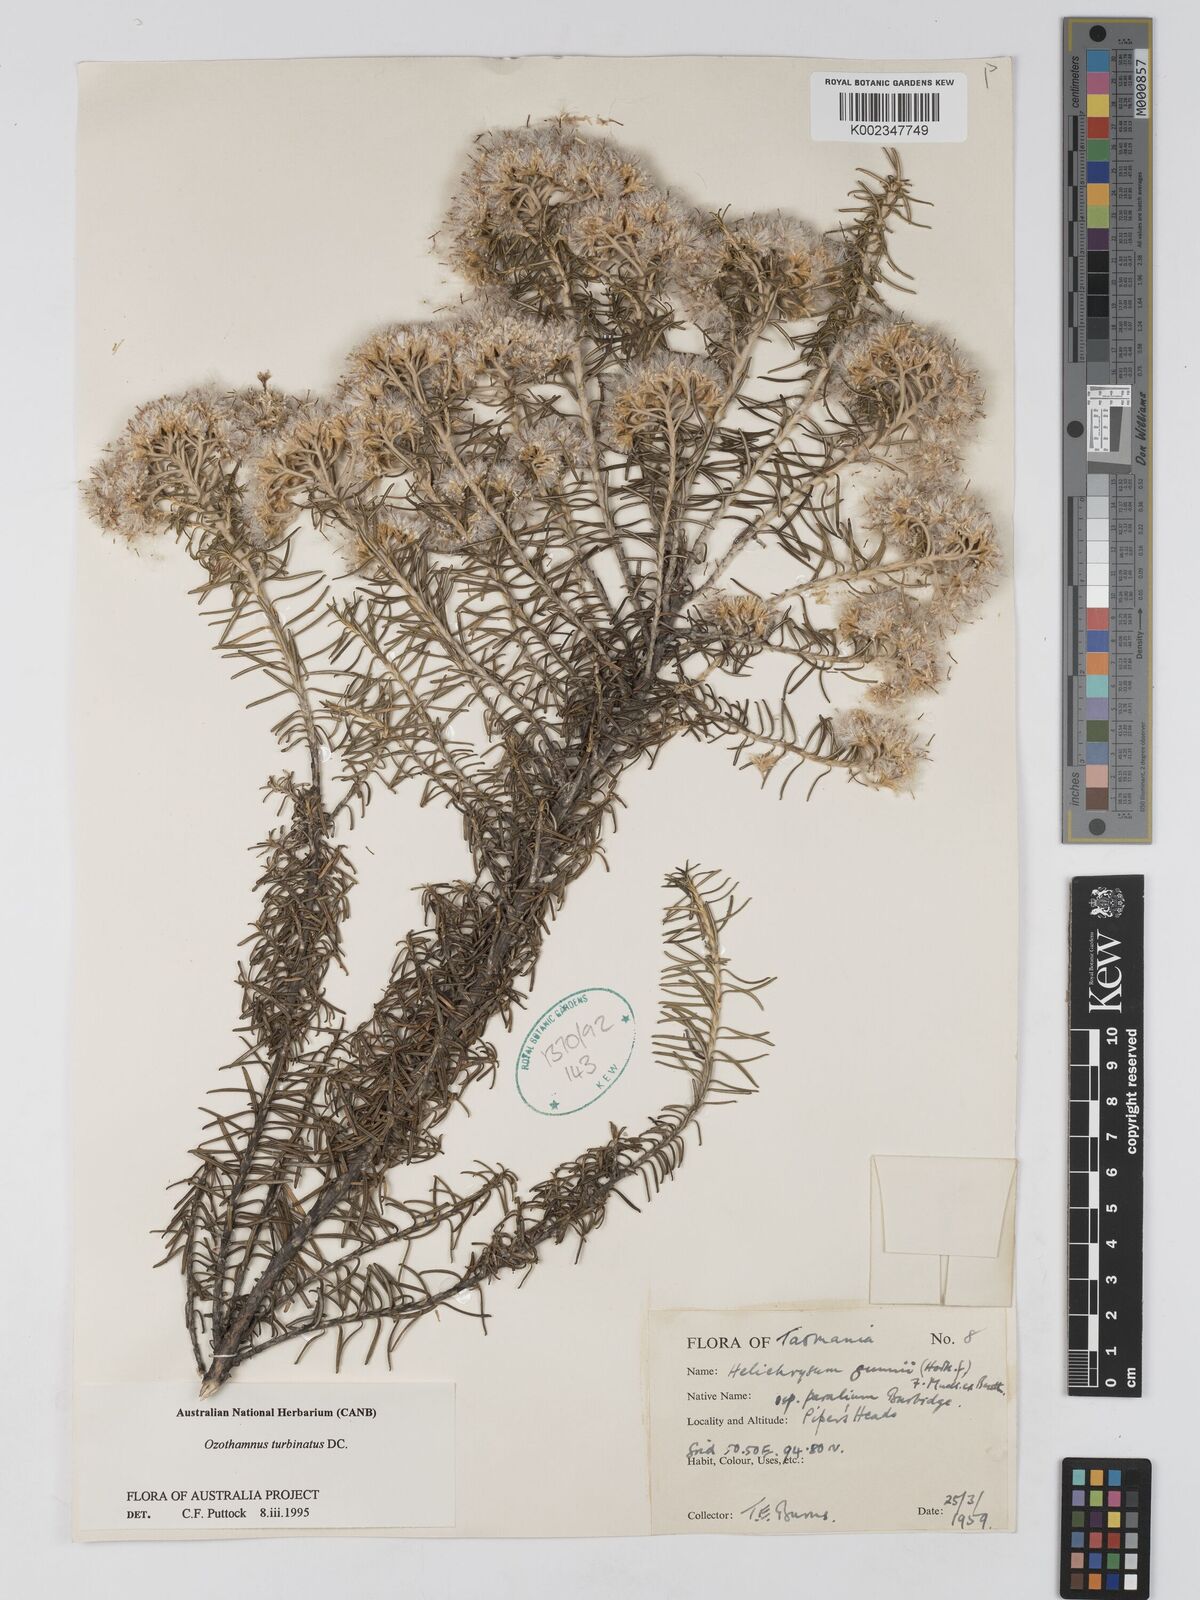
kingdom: Plantae
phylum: Tracheophyta
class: Magnoliopsida
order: Asterales
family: Asteraceae
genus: Ozothamnus
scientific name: Ozothamnus cinereus
